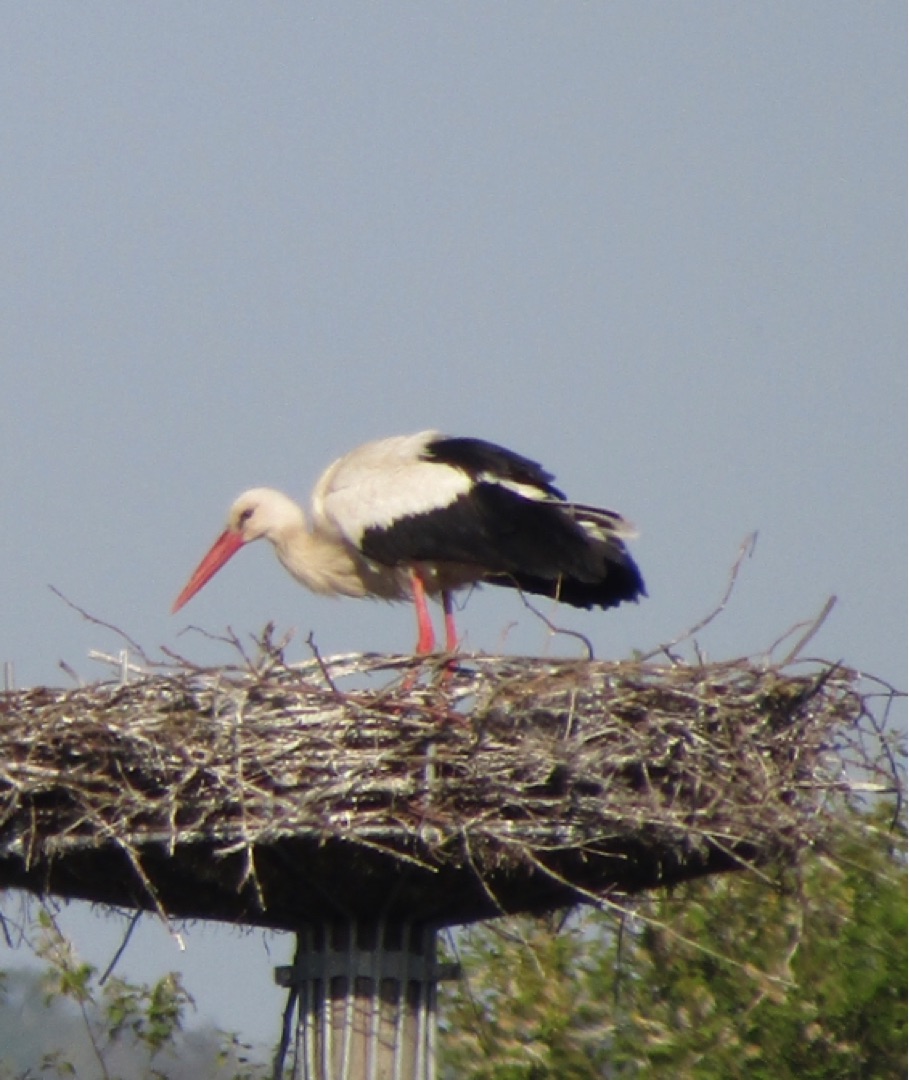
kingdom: Animalia
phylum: Chordata
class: Aves
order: Ciconiiformes
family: Ciconiidae
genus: Ciconia
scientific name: Ciconia ciconia
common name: Hvid stork
